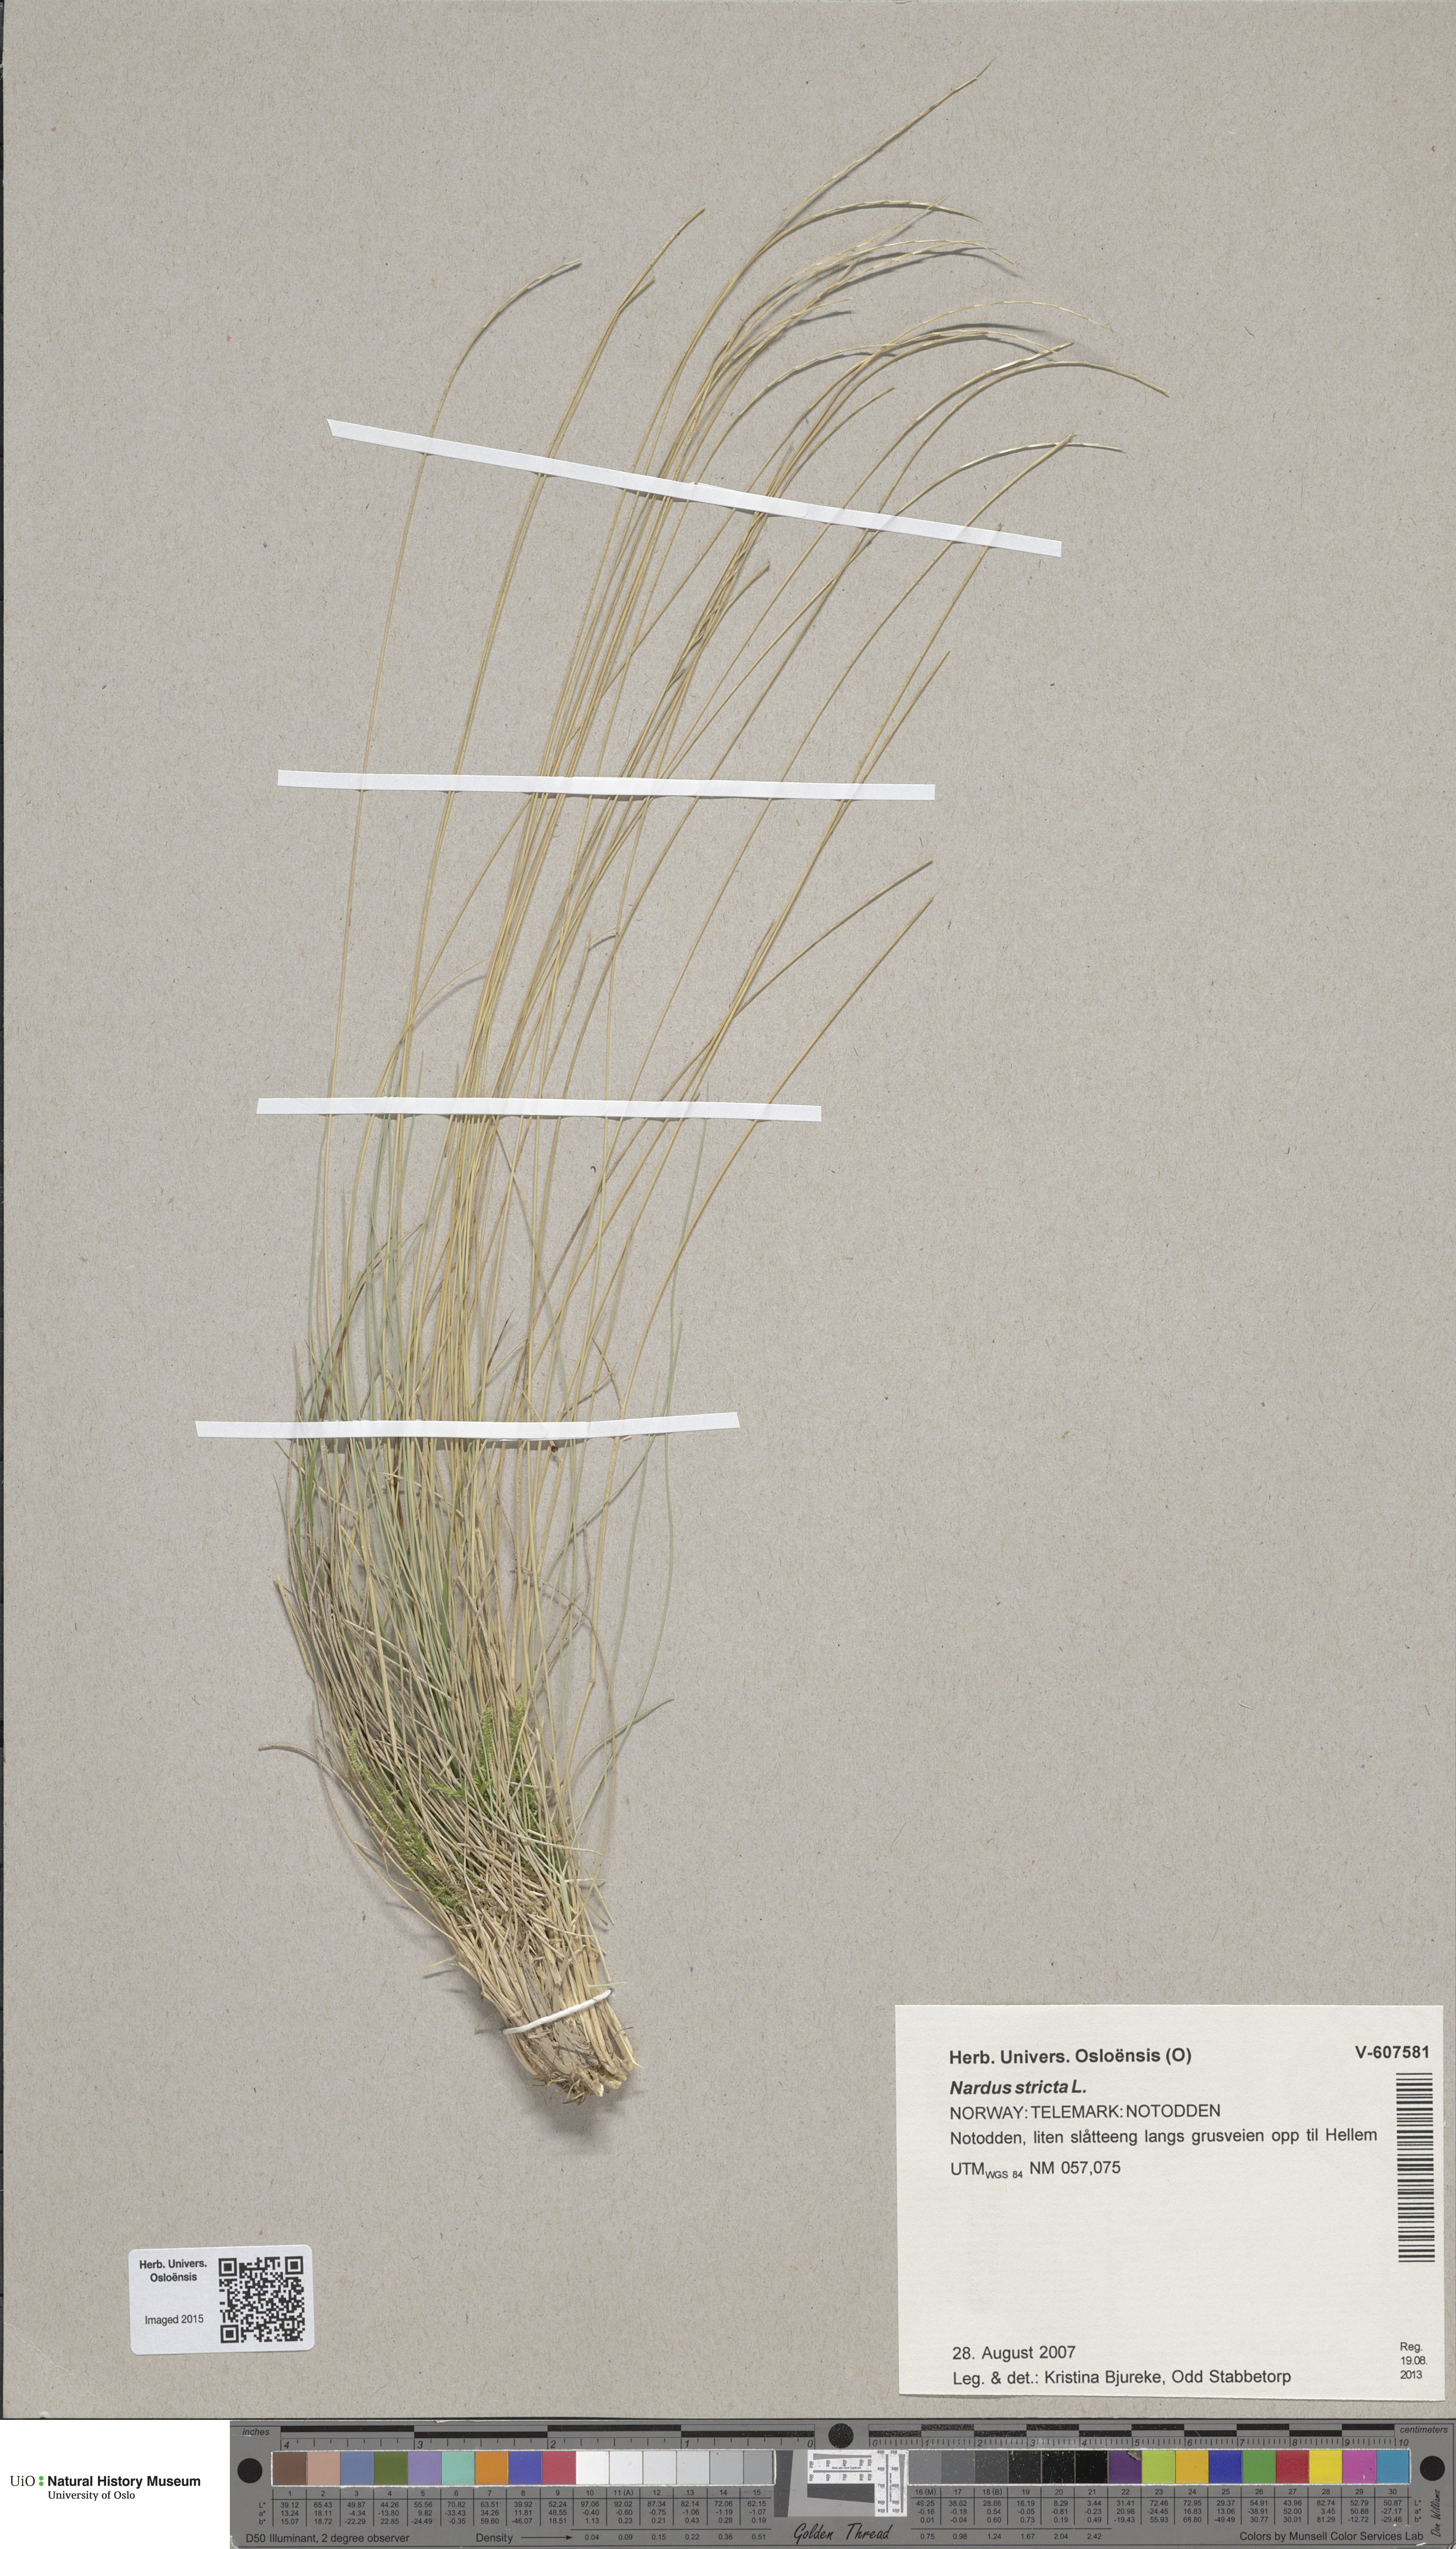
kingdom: Plantae
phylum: Tracheophyta
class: Liliopsida
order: Poales
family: Poaceae
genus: Nardus
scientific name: Nardus stricta
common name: Mat-grass
